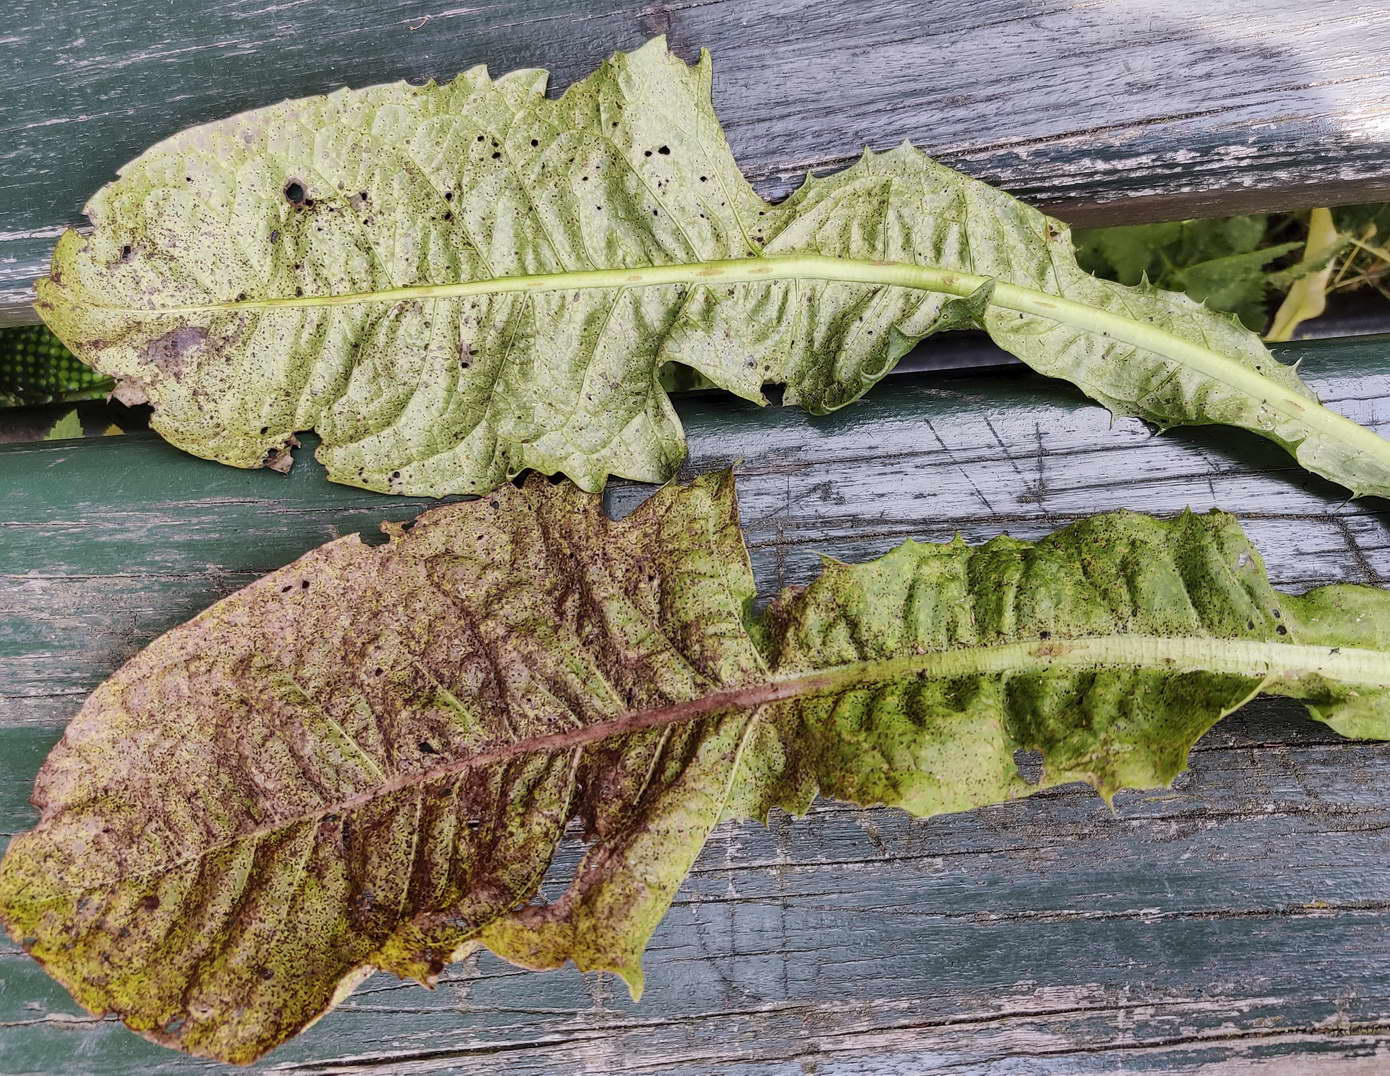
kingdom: Fungi
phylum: Basidiomycota
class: Pucciniomycetes
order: Pucciniales
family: Pucciniaceae
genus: Puccinia
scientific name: Puccinia hieracii
